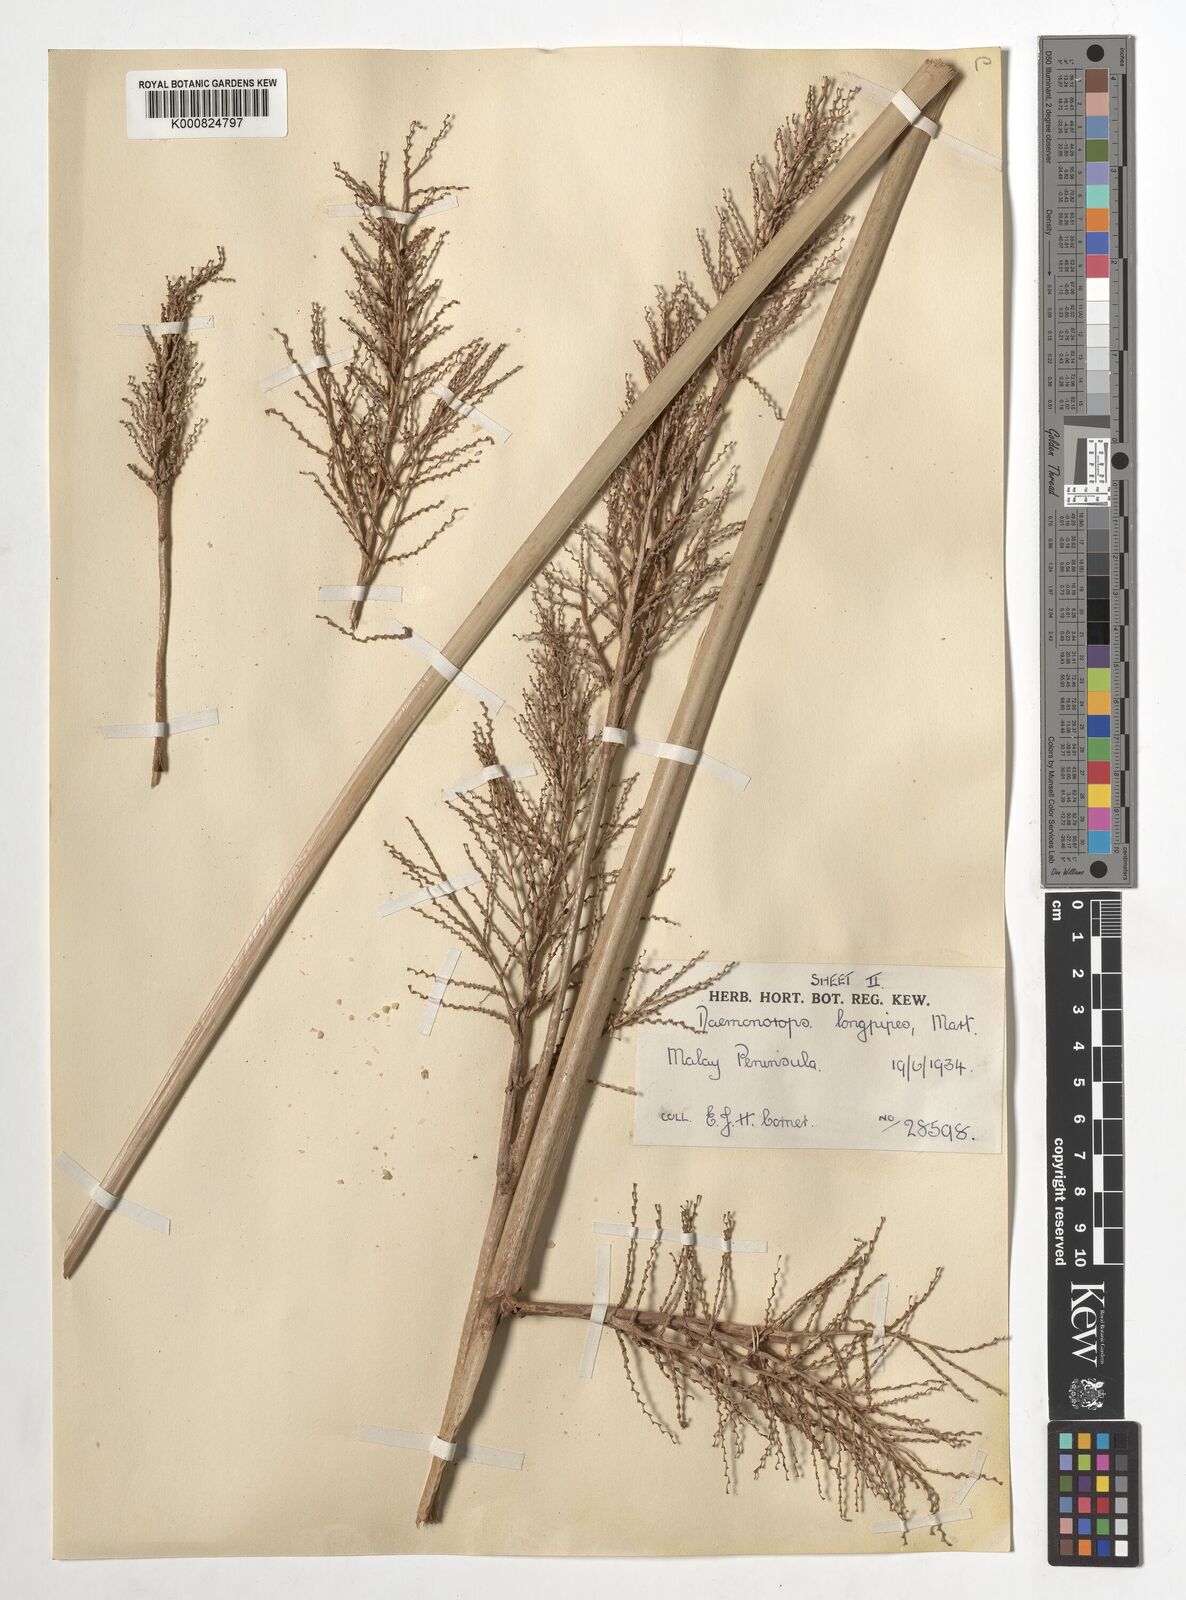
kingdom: Plantae
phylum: Tracheophyta
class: Liliopsida
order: Arecales
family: Arecaceae
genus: Calamus
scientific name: Calamus longipes
